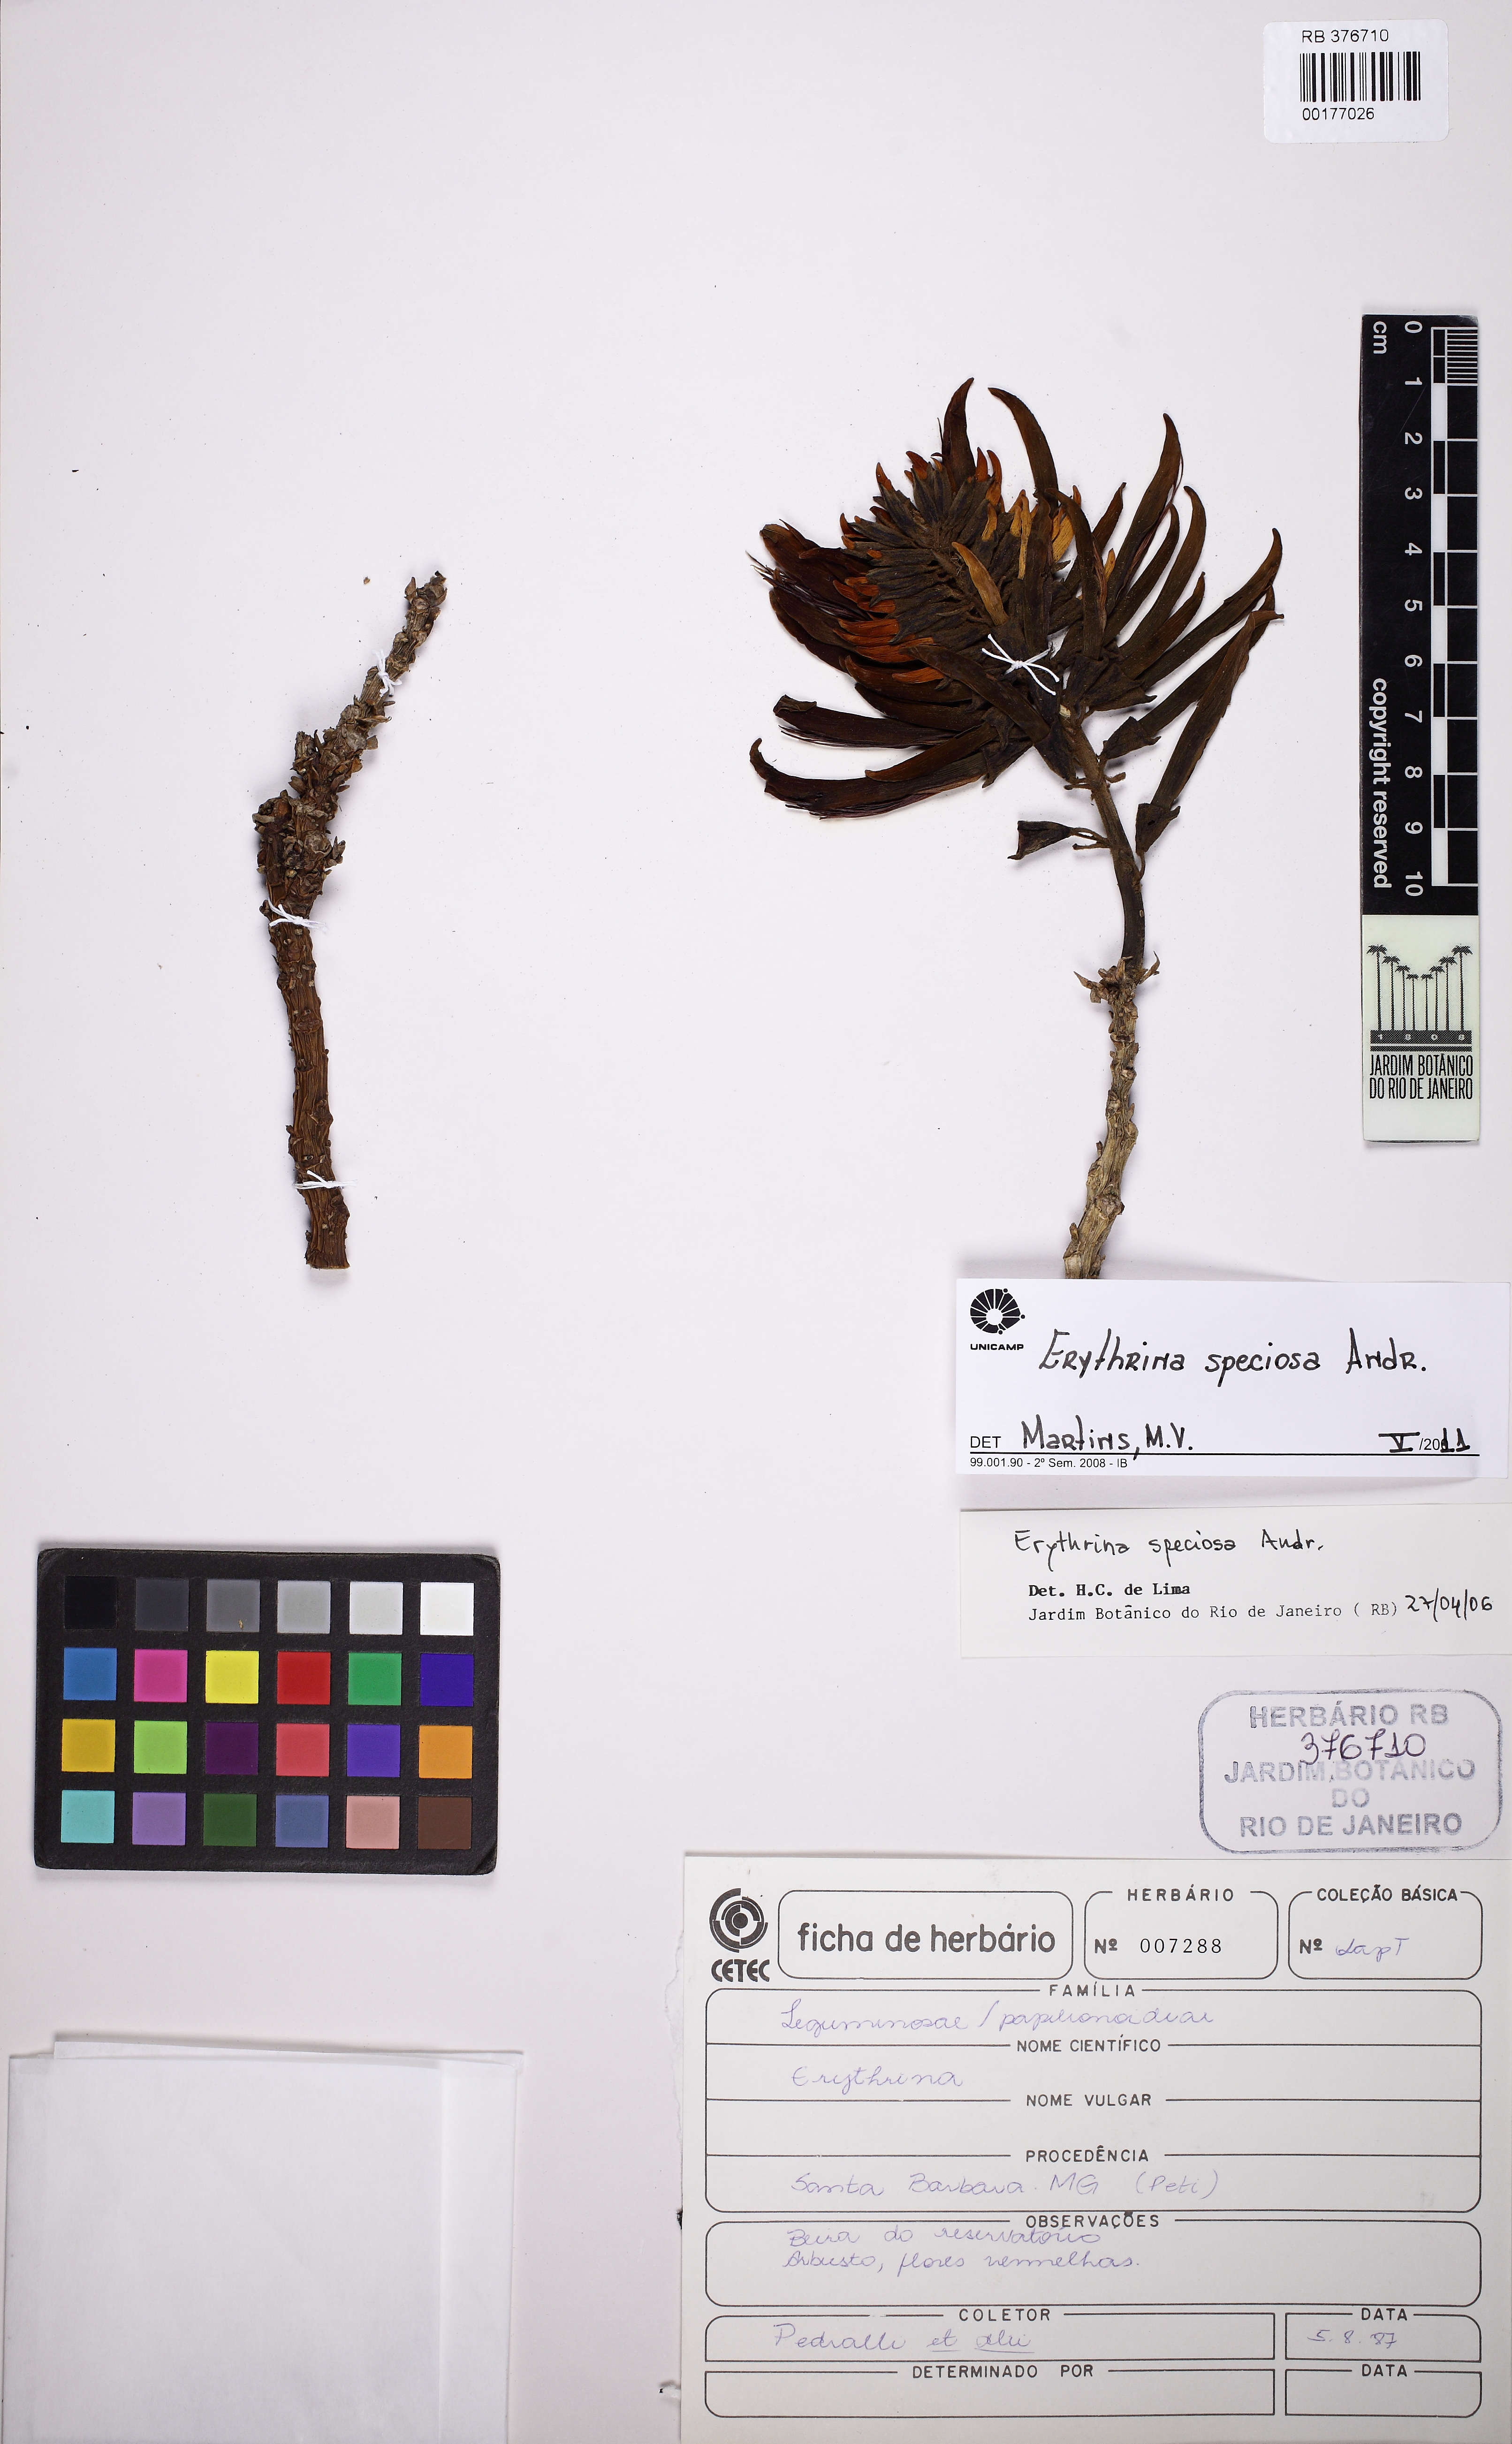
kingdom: Plantae
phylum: Tracheophyta
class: Magnoliopsida
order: Fabales
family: Fabaceae
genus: Erythrina
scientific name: Erythrina speciosa
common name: Coral tree
